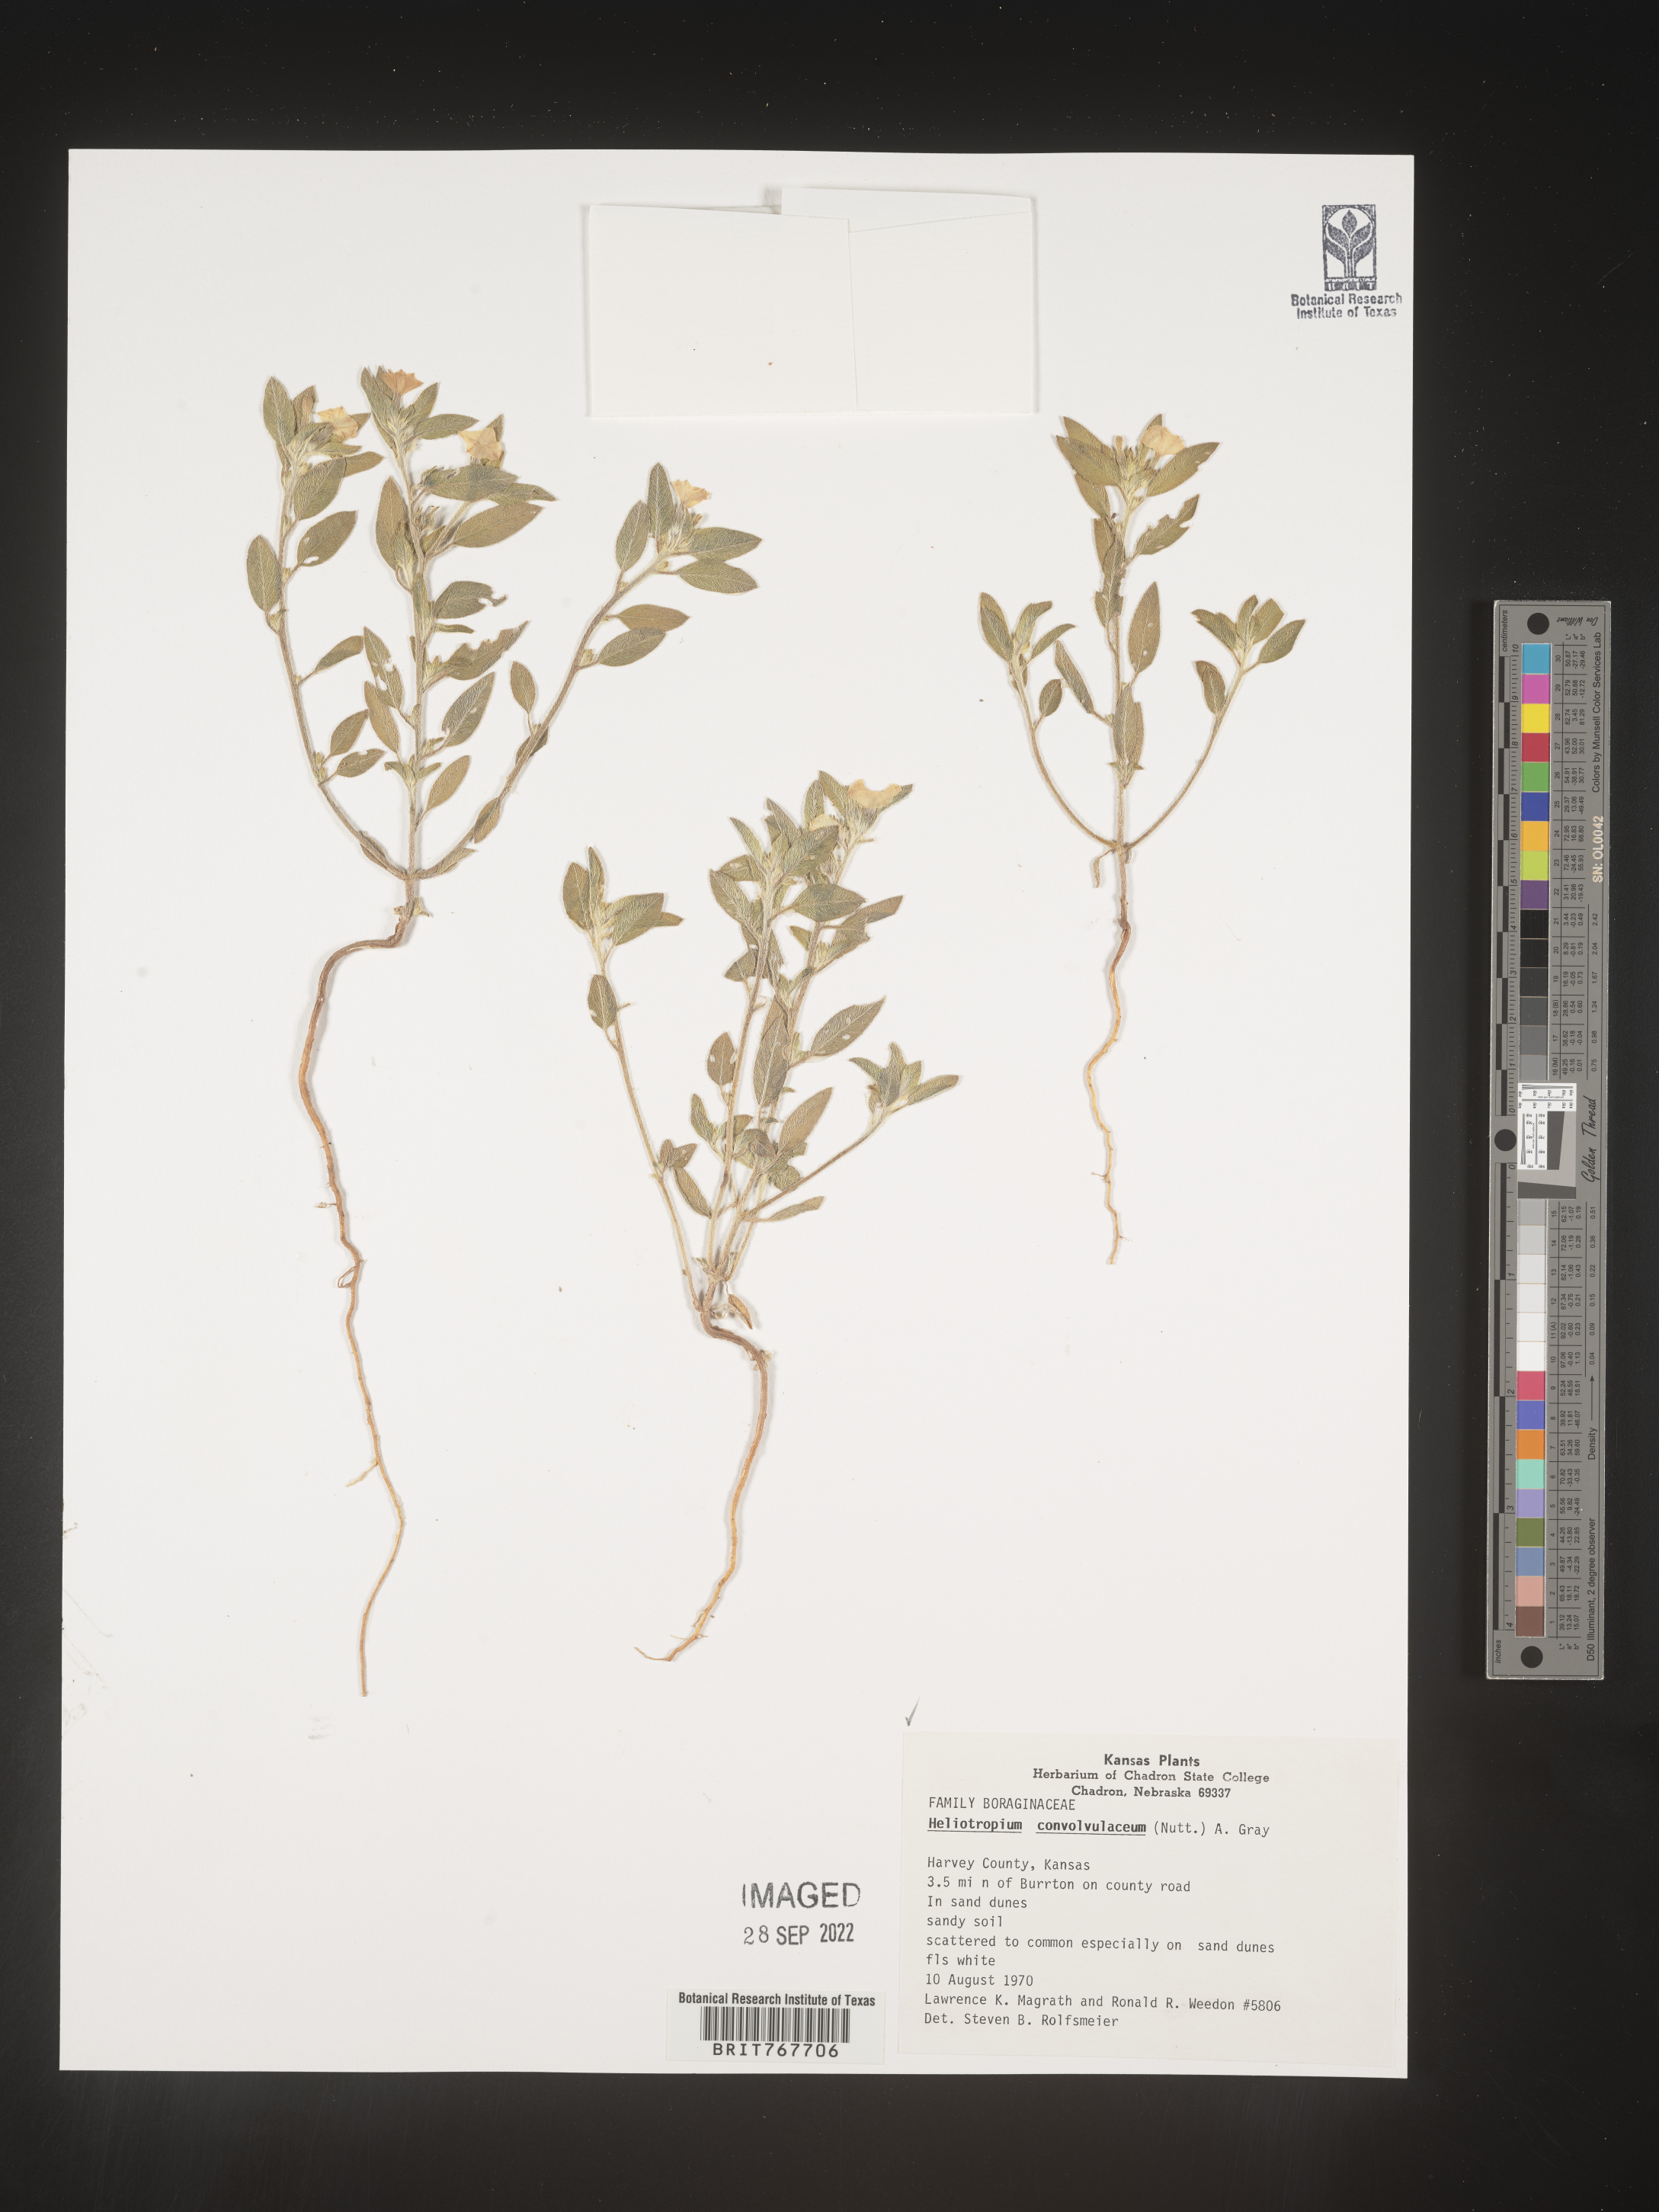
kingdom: Plantae
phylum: Tracheophyta
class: Magnoliopsida
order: Boraginales
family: Heliotropiaceae
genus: Heliotropium
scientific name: Heliotropium
